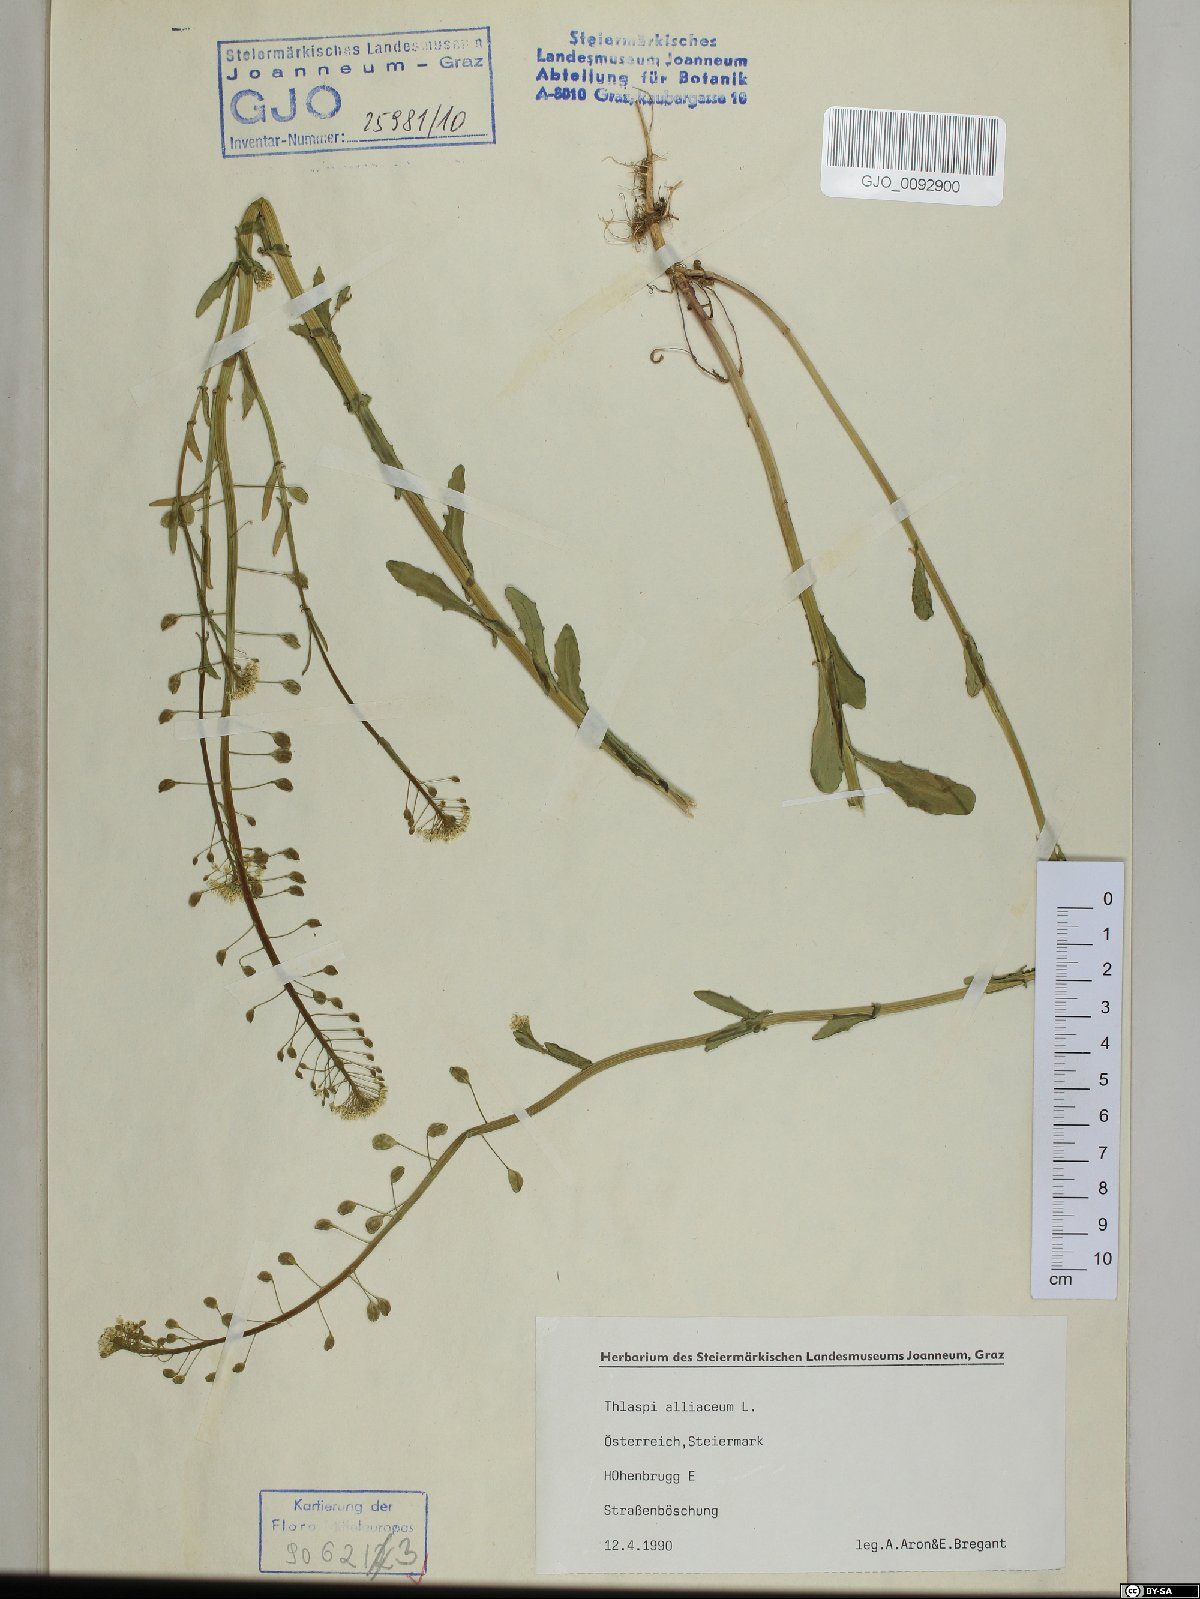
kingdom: Plantae
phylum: Tracheophyta
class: Magnoliopsida
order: Brassicales
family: Brassicaceae
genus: Mummenhoffia
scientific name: Mummenhoffia alliacea
